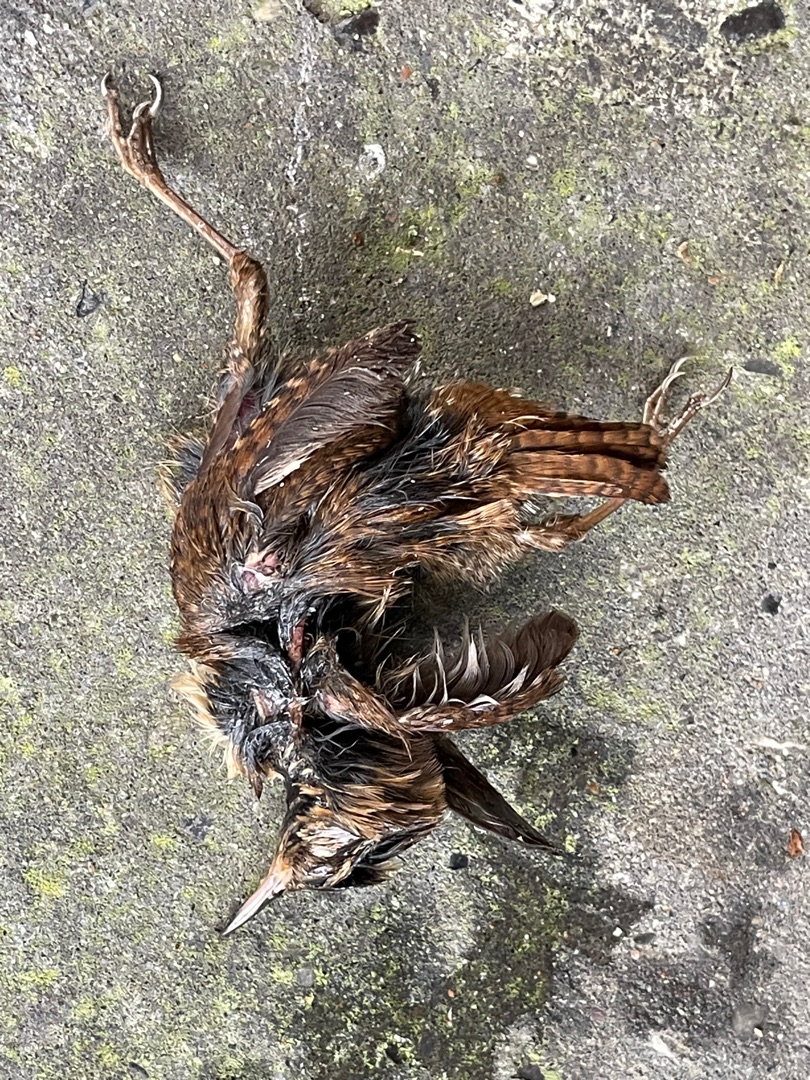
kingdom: Animalia
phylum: Chordata
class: Aves
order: Passeriformes
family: Troglodytidae
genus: Troglodytes
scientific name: Troglodytes troglodytes
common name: Gærdesmutte
